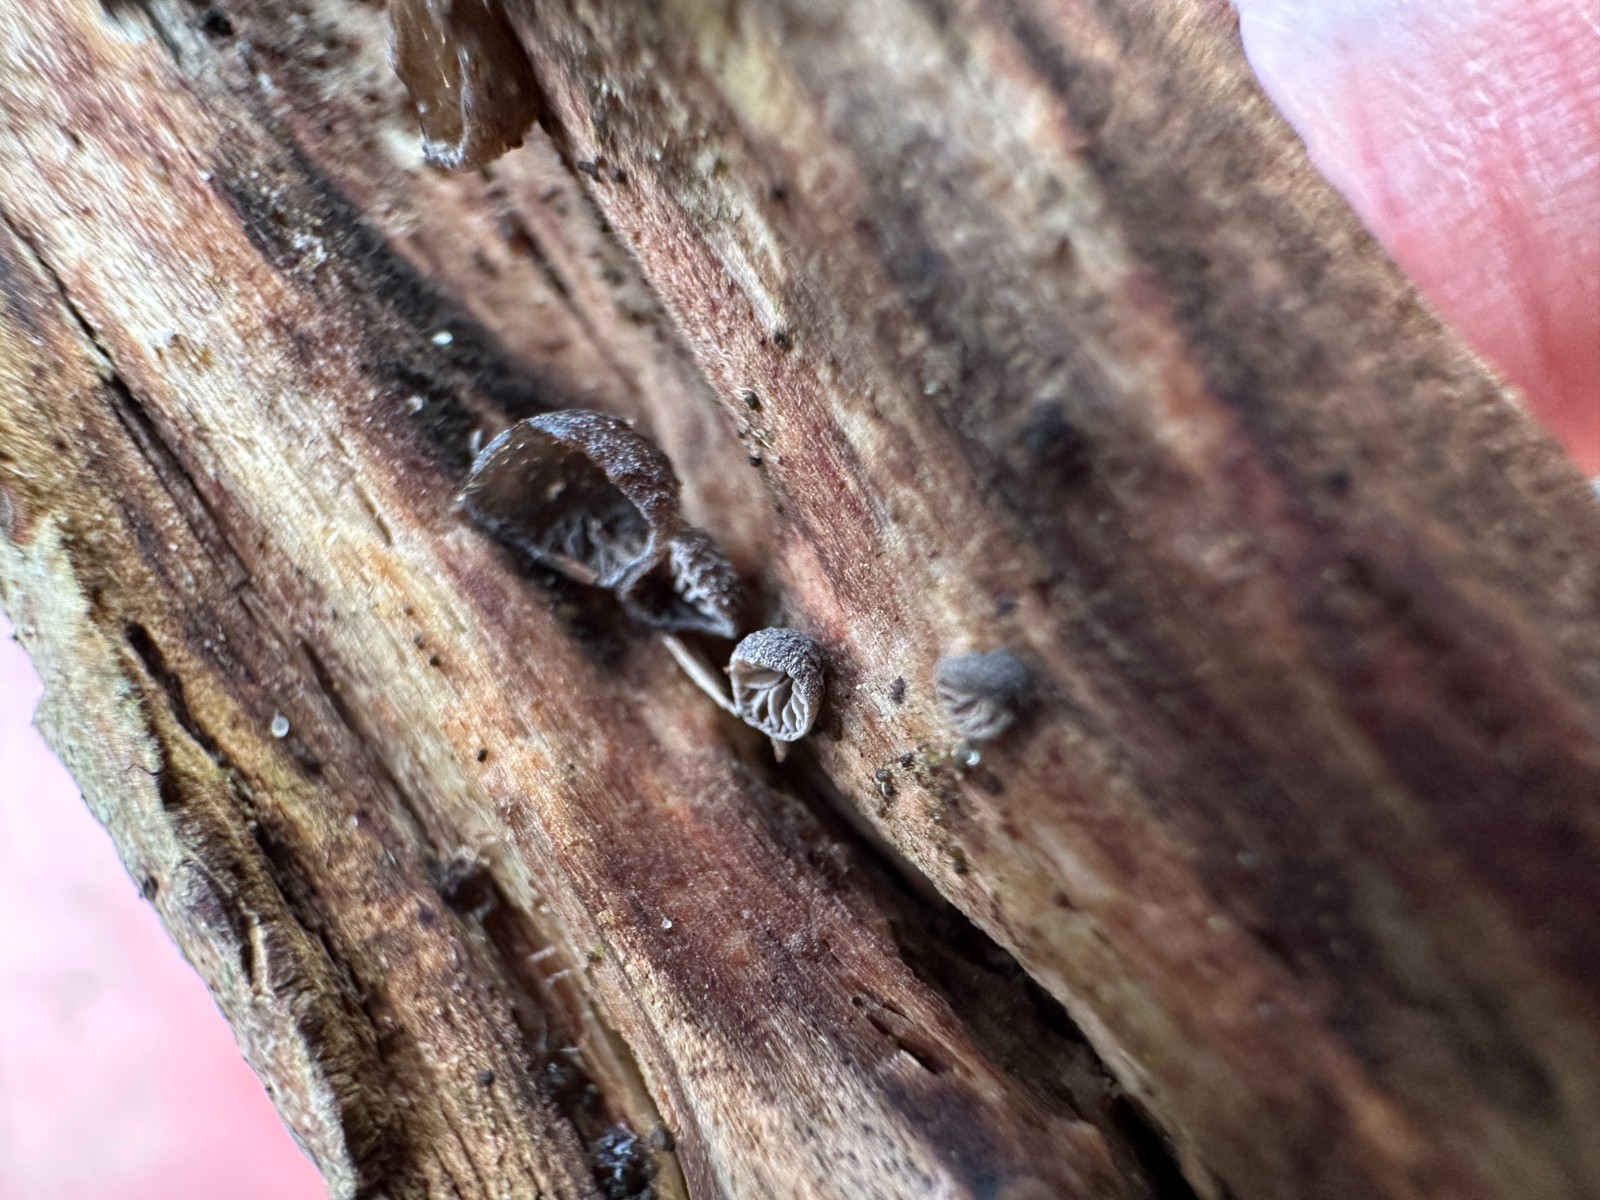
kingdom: Fungi
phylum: Basidiomycota
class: Agaricomycetes
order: Agaricales
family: Pleurotaceae
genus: Resupinatus
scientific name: Resupinatus trichotis
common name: mørkfiltet barkhat
